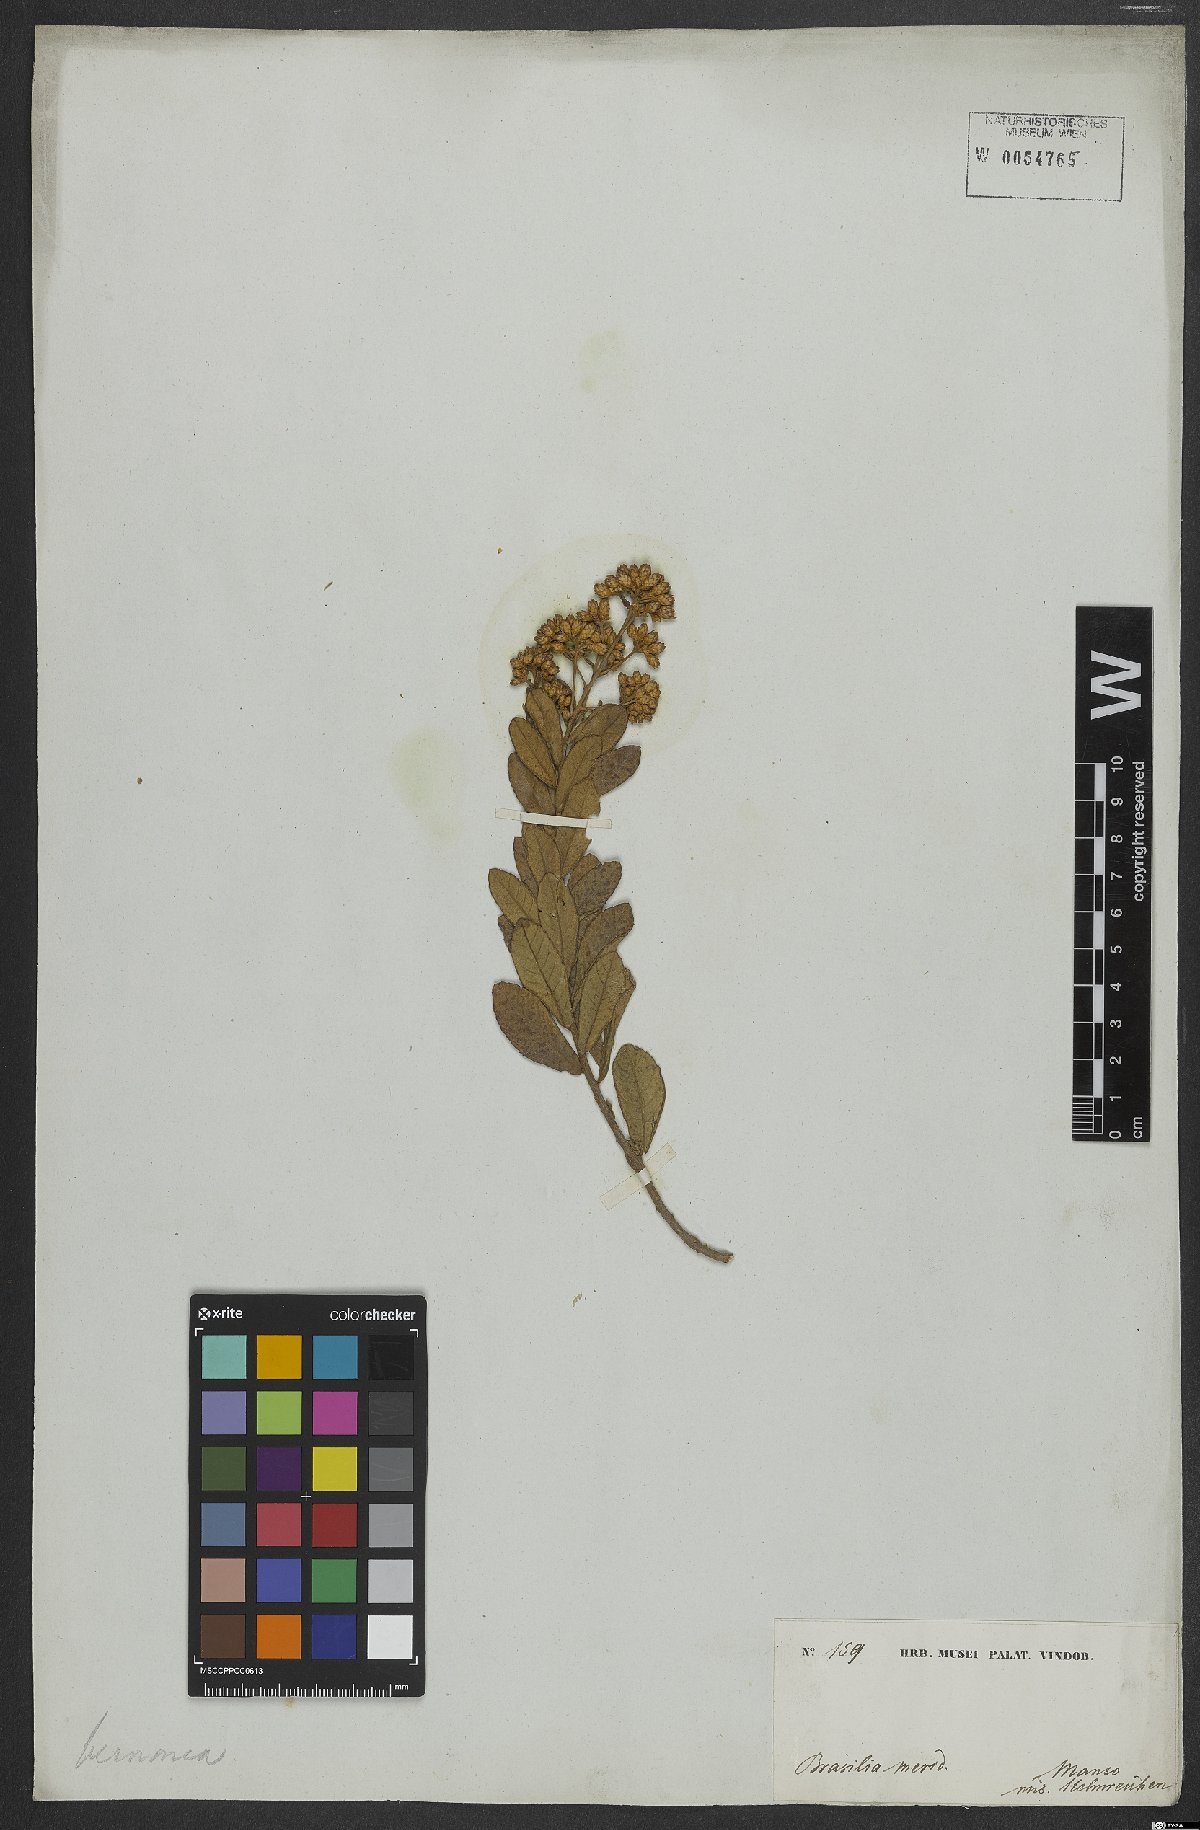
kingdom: Plantae
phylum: Tracheophyta
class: Magnoliopsida
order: Asterales
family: Asteraceae
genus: Vernonia
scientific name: Vernonia
